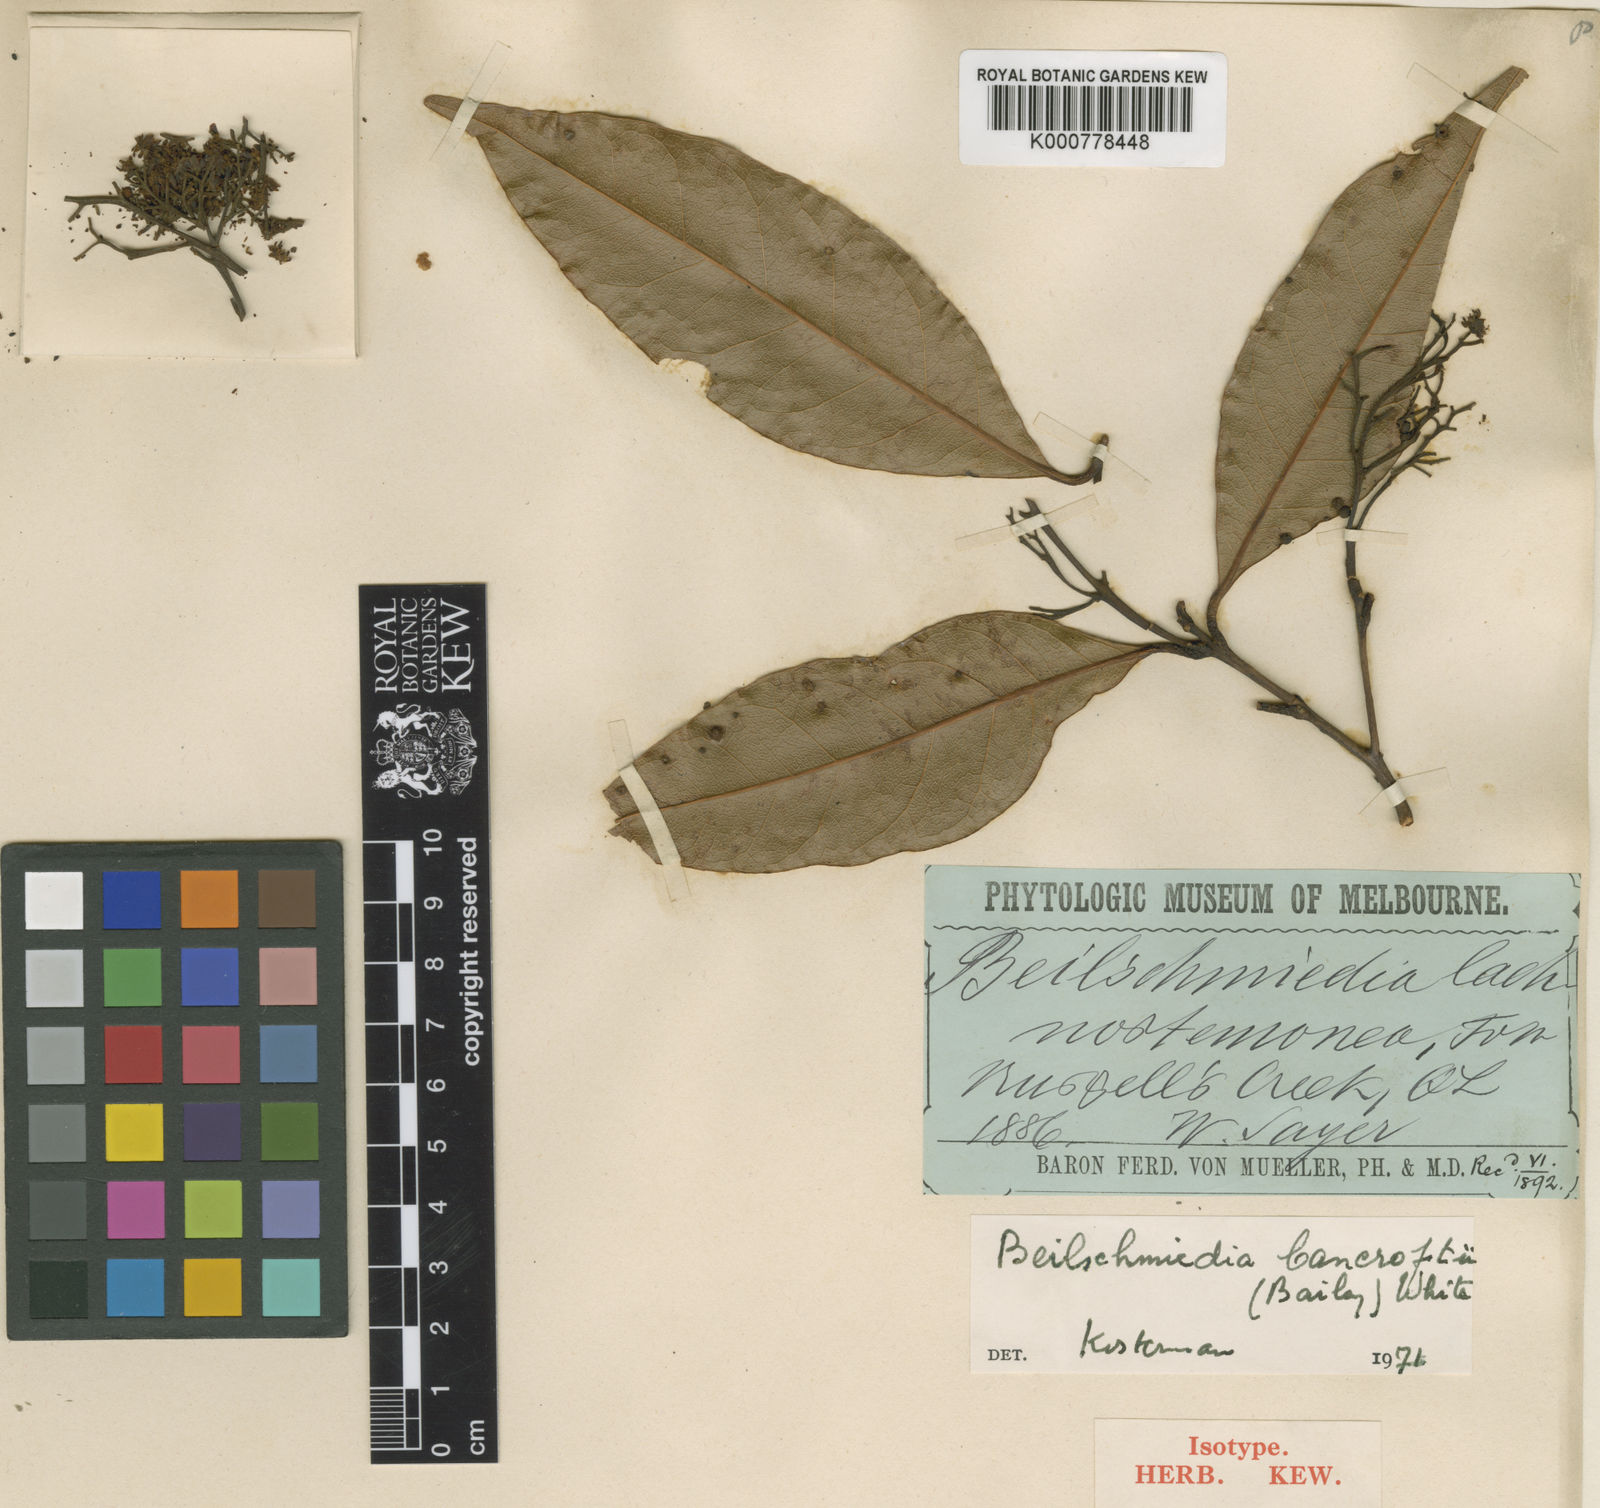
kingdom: Plantae
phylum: Tracheophyta
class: Magnoliopsida
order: Laurales
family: Lauraceae
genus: Beilschmiedia
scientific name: Beilschmiedia bancroftii
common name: Canary-ash
